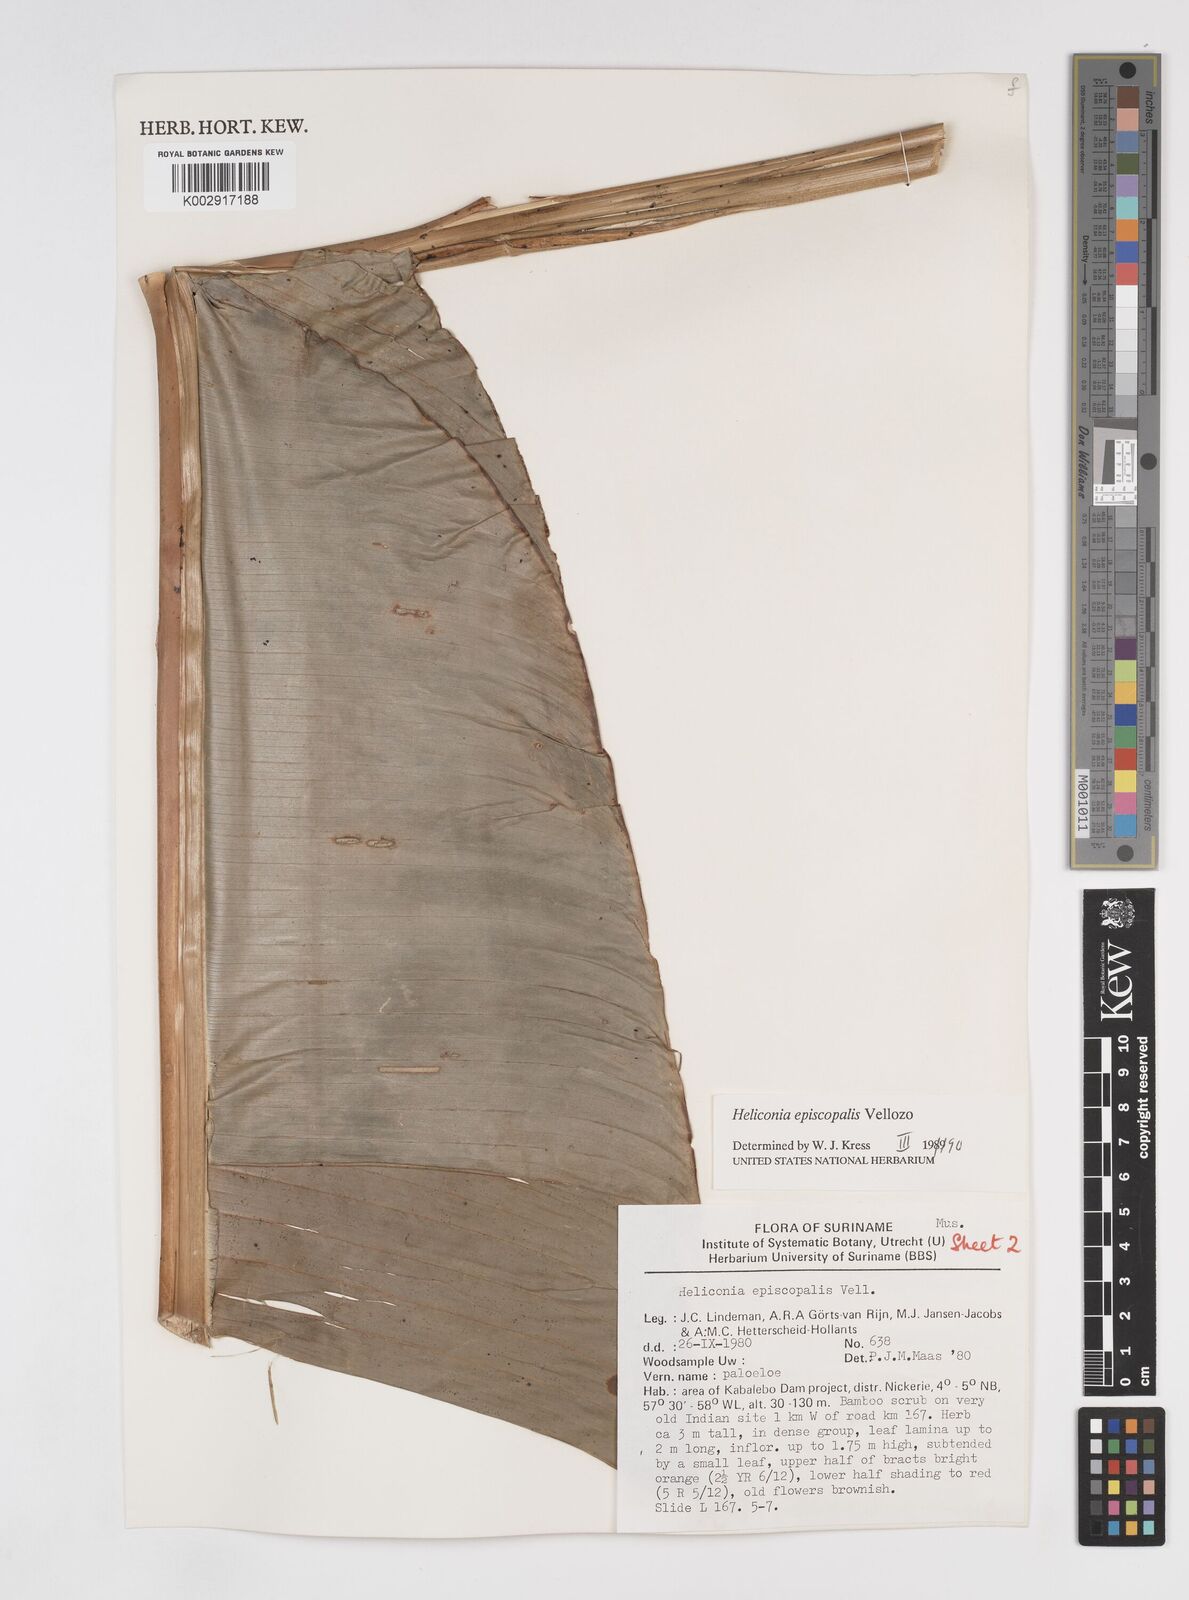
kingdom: Plantae
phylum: Tracheophyta
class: Liliopsida
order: Zingiberales
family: Heliconiaceae
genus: Heliconia
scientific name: Heliconia episcopalis
